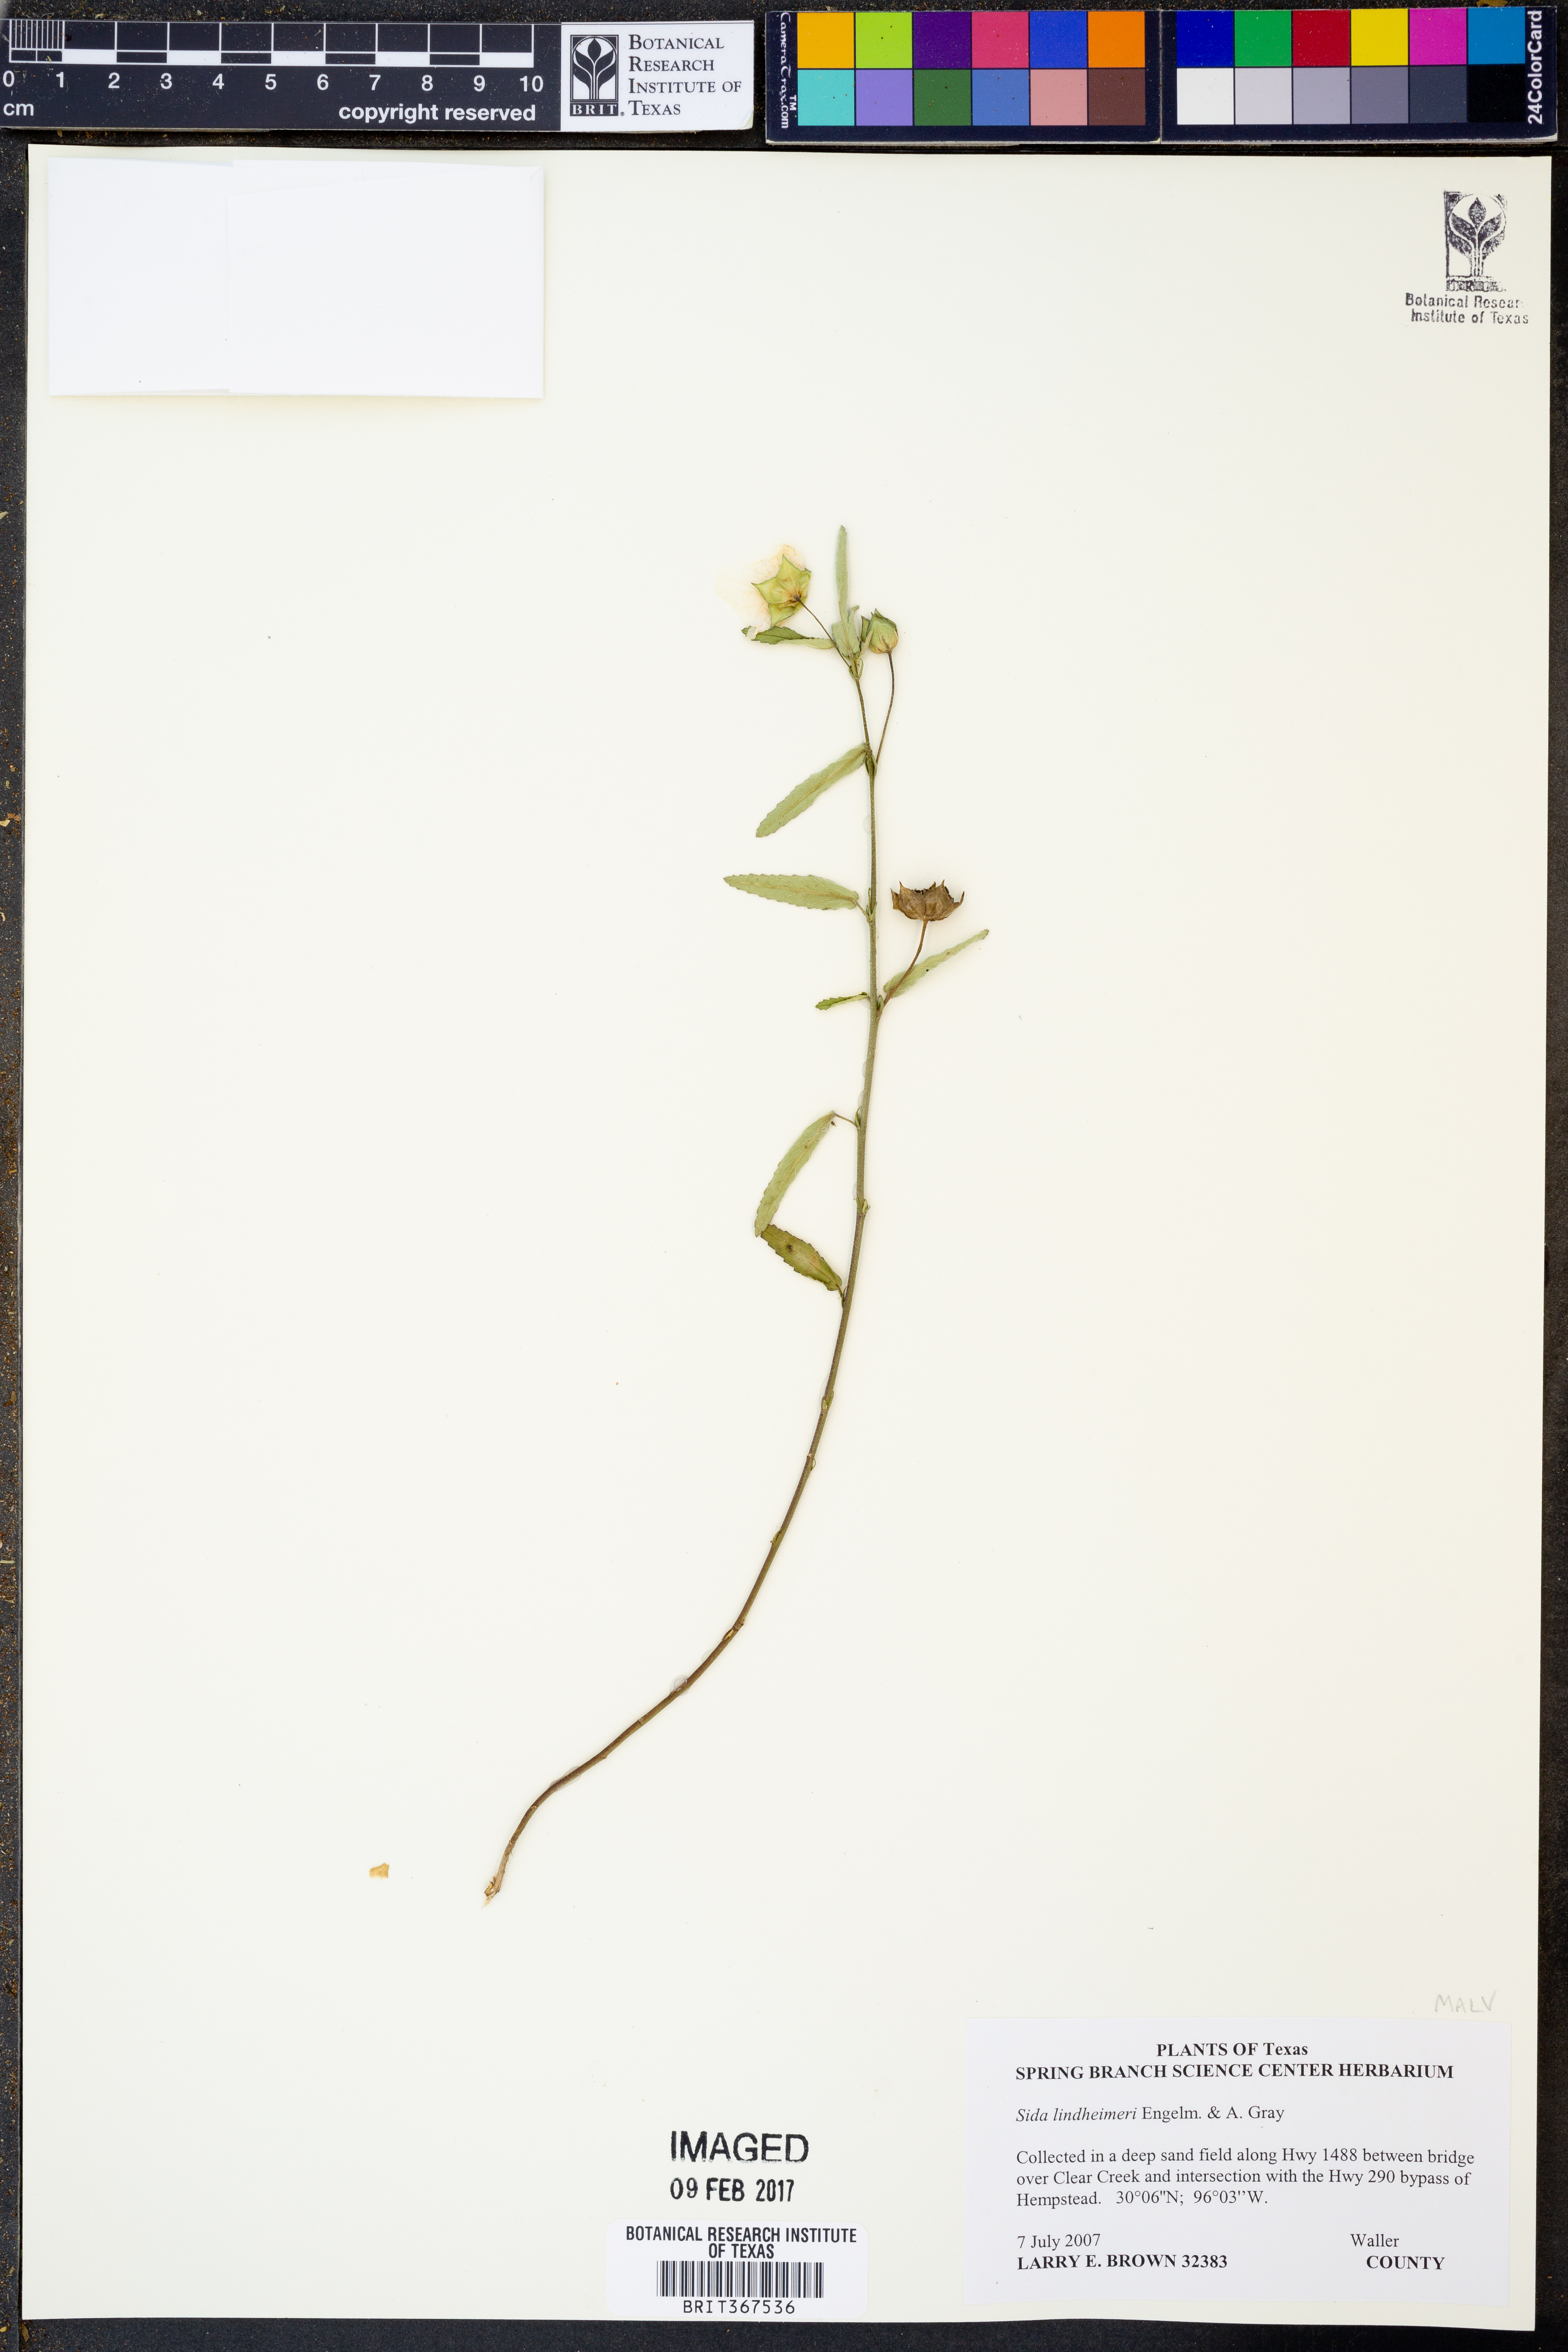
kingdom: Plantae
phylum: Tracheophyta
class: Magnoliopsida
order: Malvales
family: Malvaceae
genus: Sida
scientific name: Sida lindheimeri
